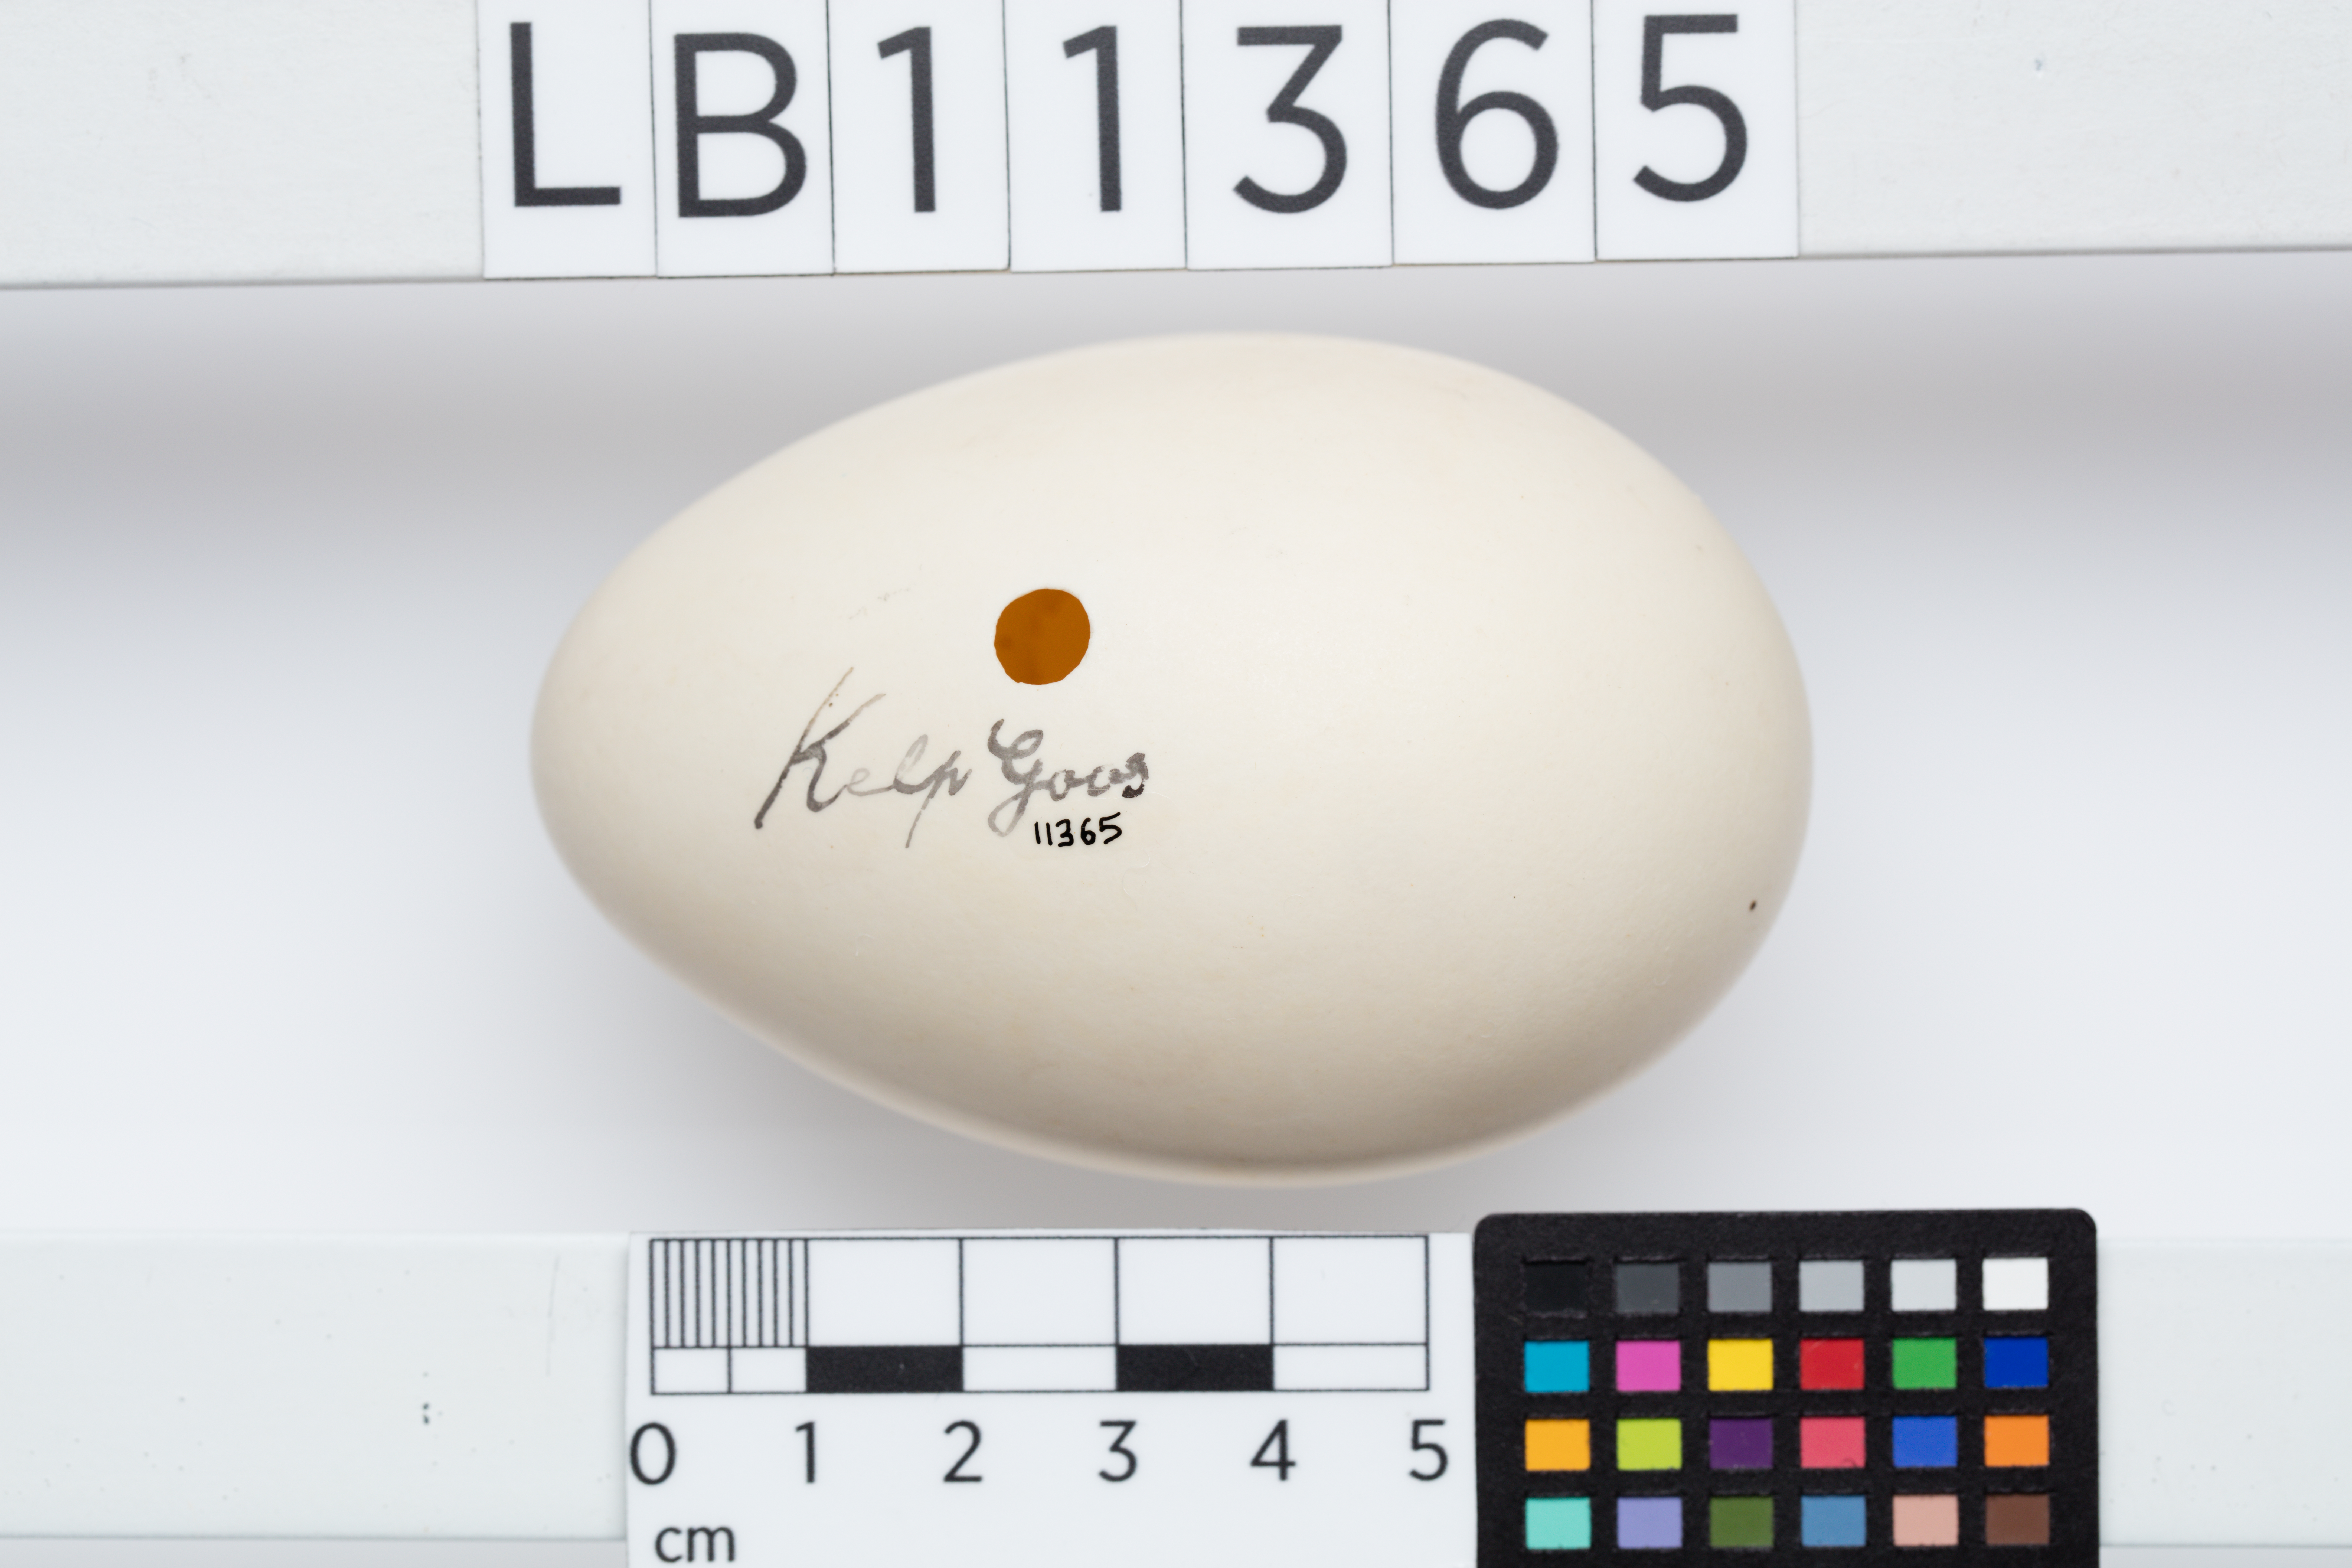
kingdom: Animalia
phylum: Chordata
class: Aves
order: Anseriformes
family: Anatidae
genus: Chloephaga
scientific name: Chloephaga hybrida
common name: Kelp goose
